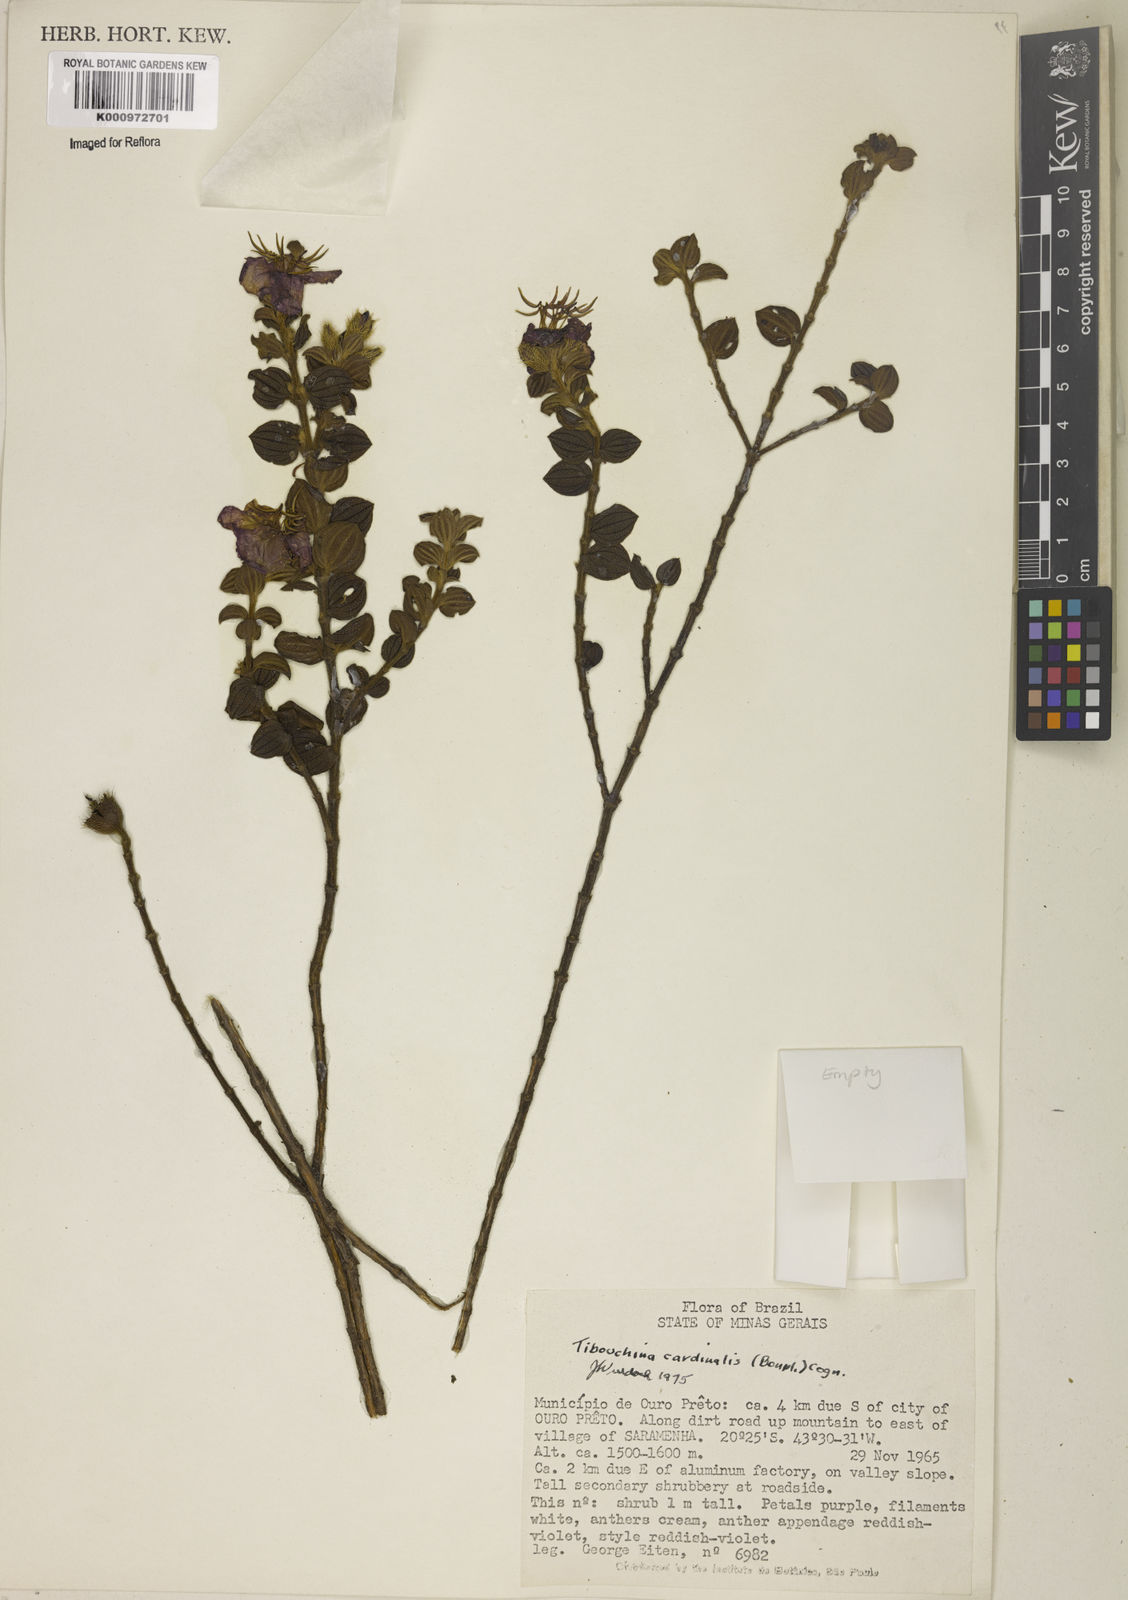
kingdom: Plantae
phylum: Tracheophyta
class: Magnoliopsida
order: Myrtales
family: Melastomataceae
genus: Chaetogastra
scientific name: Chaetogastra cardinalis
